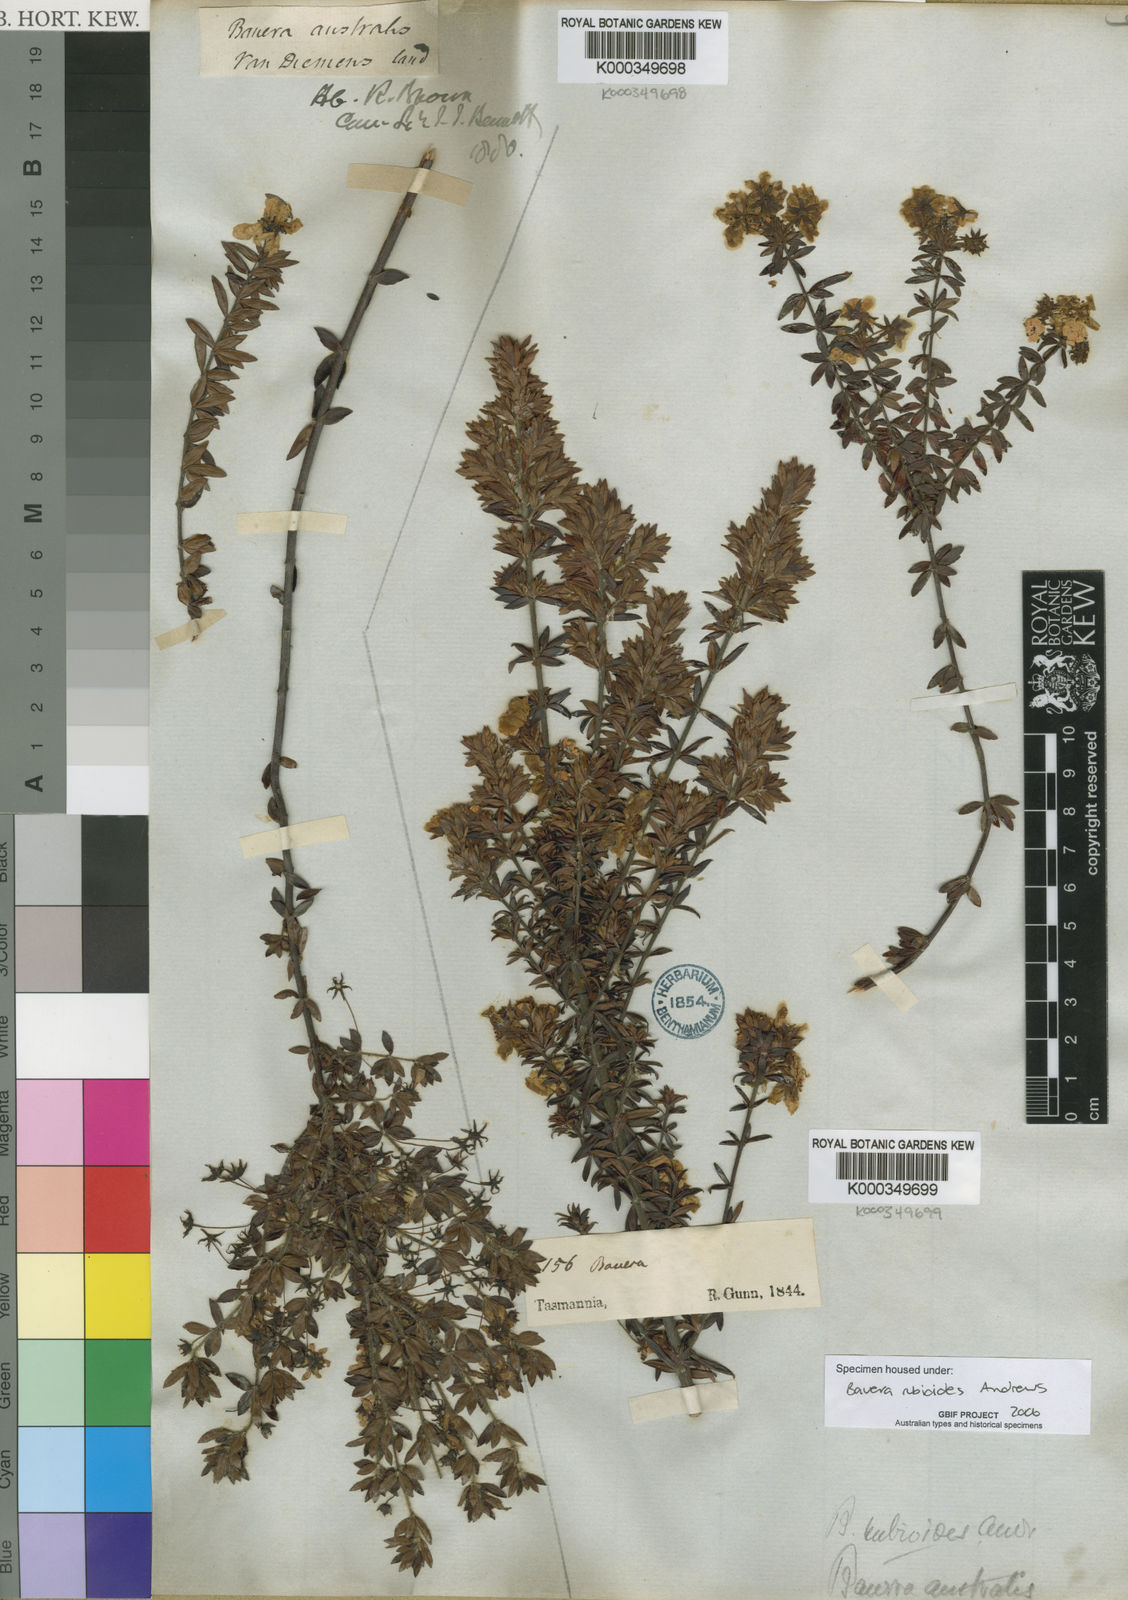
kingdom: Plantae
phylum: Tracheophyta
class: Magnoliopsida
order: Oxalidales
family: Cunoniaceae
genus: Bauera
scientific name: Bauera rubioides
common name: River-rose
